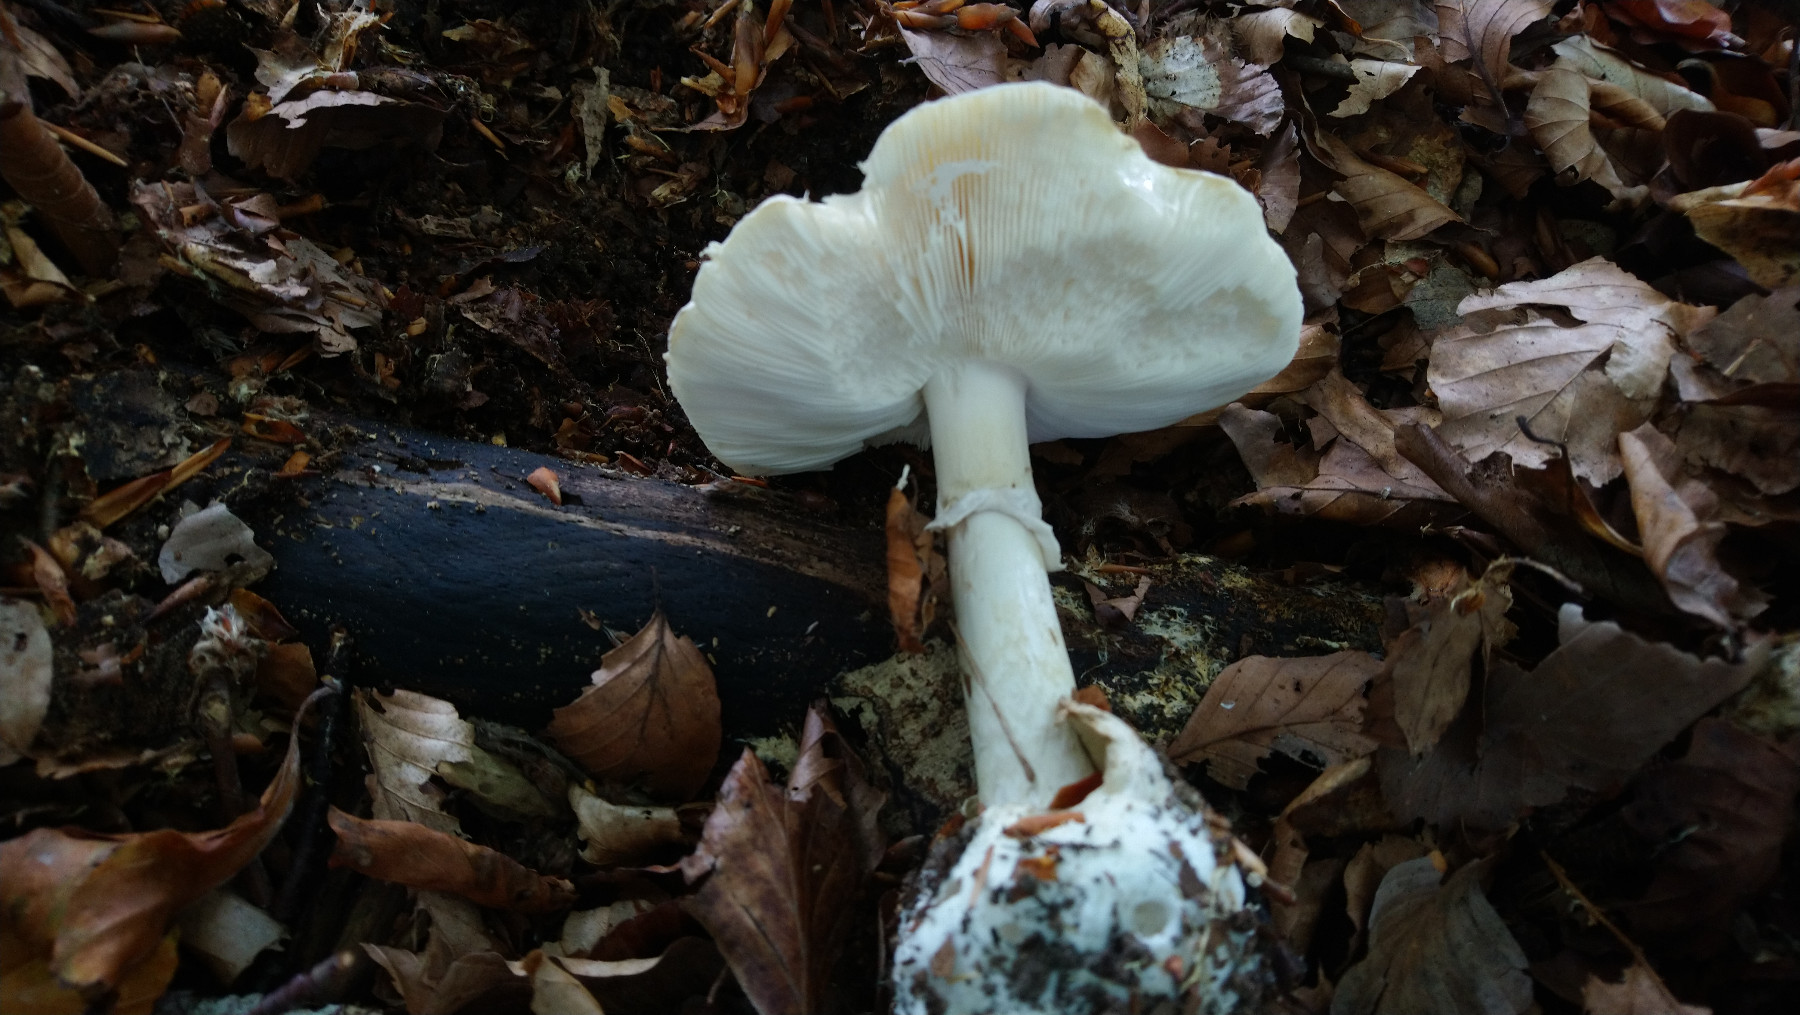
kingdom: Fungi
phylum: Basidiomycota
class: Agaricomycetes
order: Agaricales
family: Amanitaceae
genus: Amanita
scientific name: Amanita phalloides
